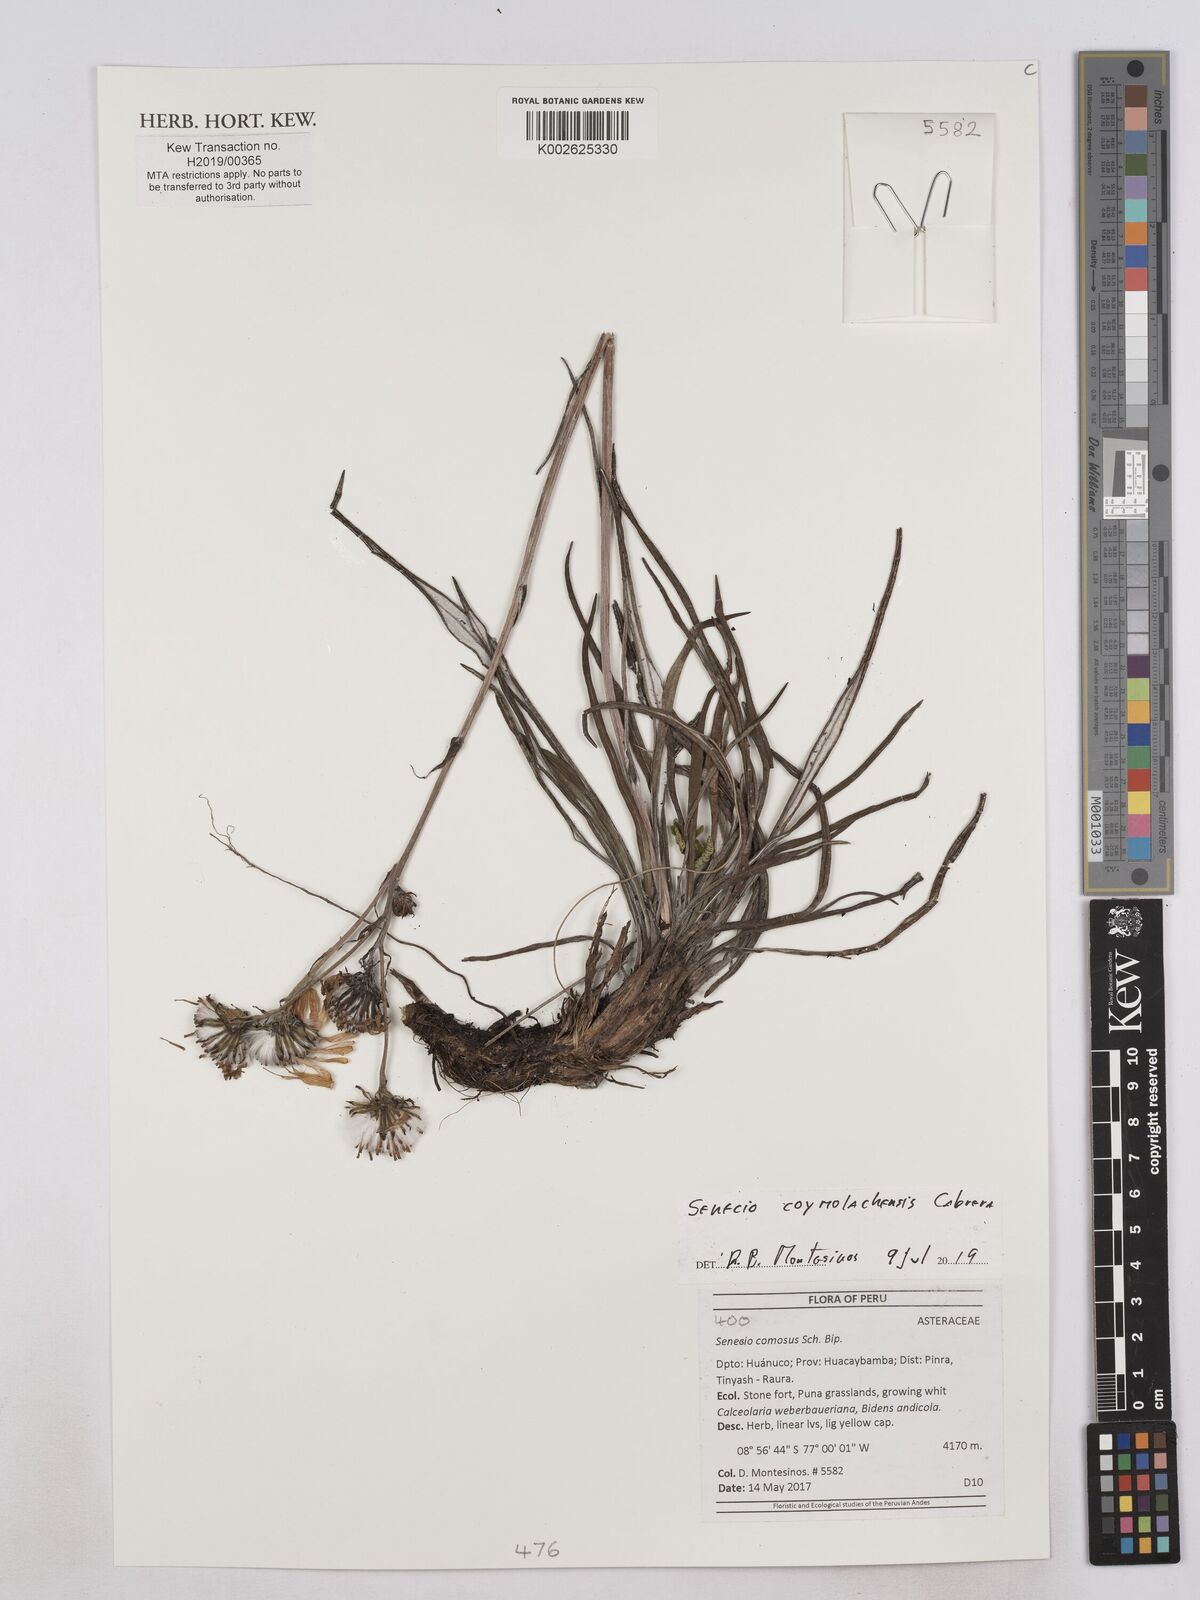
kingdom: Plantae
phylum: Tracheophyta
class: Magnoliopsida
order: Asterales
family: Asteraceae
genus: Senecio
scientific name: Senecio coymolachensis
